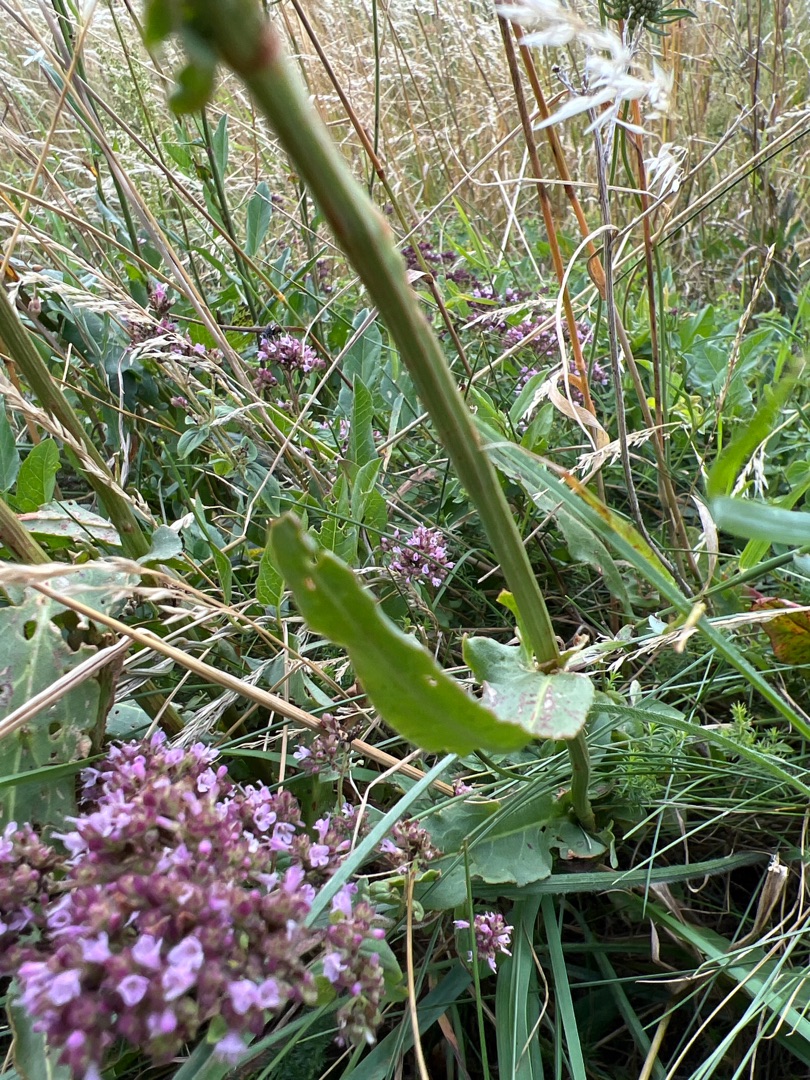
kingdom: Plantae
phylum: Tracheophyta
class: Magnoliopsida
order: Caryophyllales
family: Polygonaceae
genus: Rumex
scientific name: Rumex thyrsiflorus
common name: Dusk-syre
